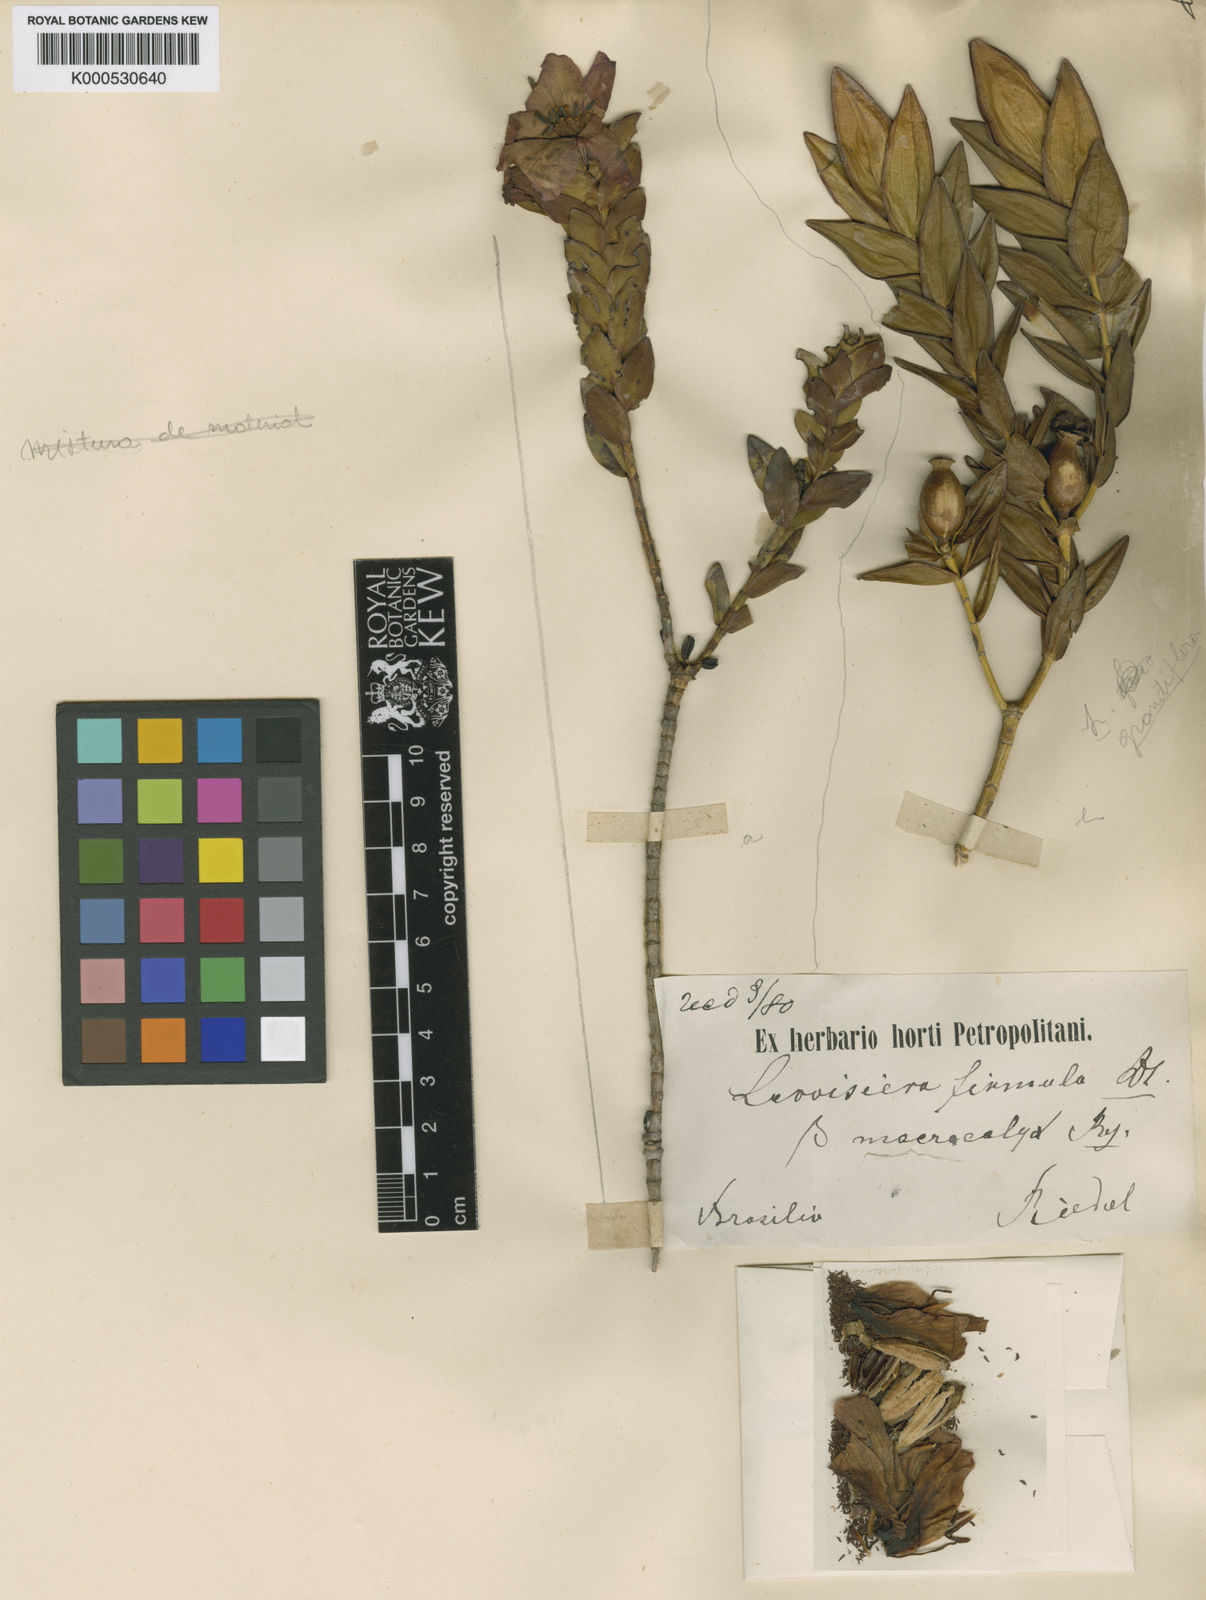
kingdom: Plantae
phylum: Tracheophyta
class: Magnoliopsida
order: Myrtales
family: Melastomataceae
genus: Microlicia
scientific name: Microlicia macrantha
